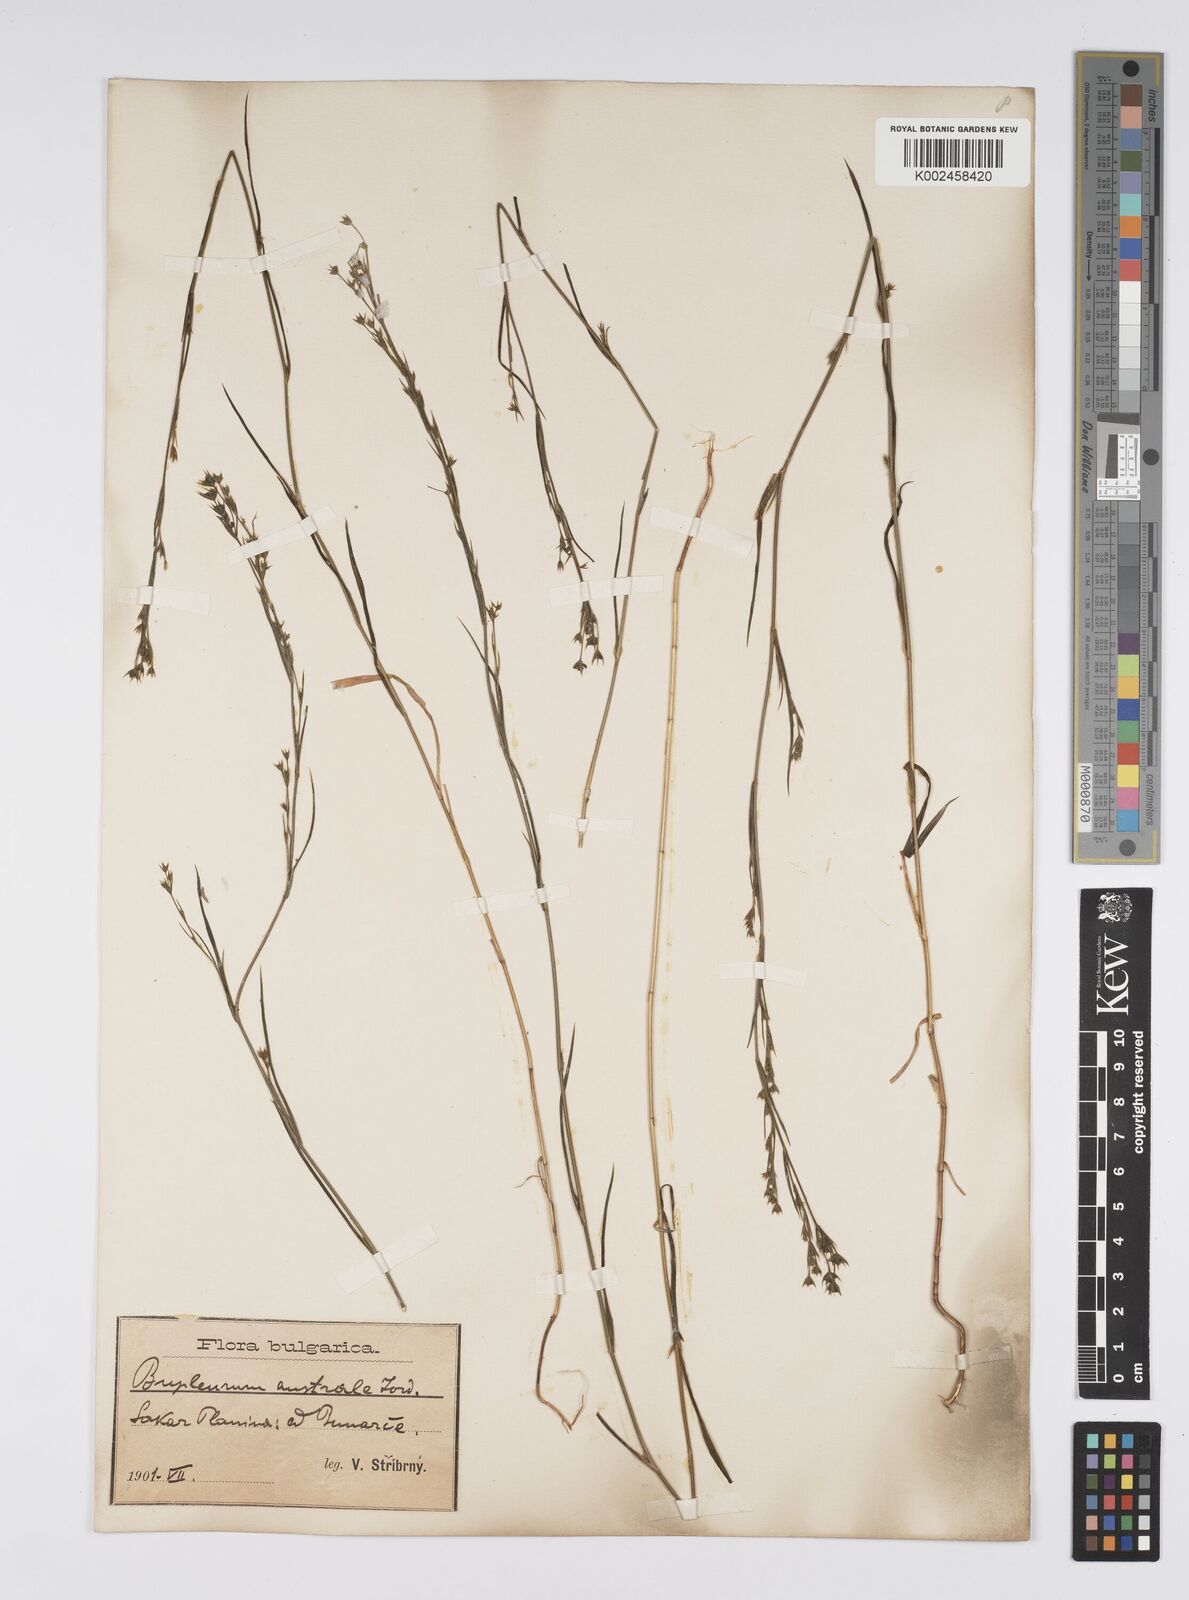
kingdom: Plantae
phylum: Tracheophyta
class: Magnoliopsida
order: Apiales
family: Apiaceae
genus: Bupleurum
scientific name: Bupleurum affine
